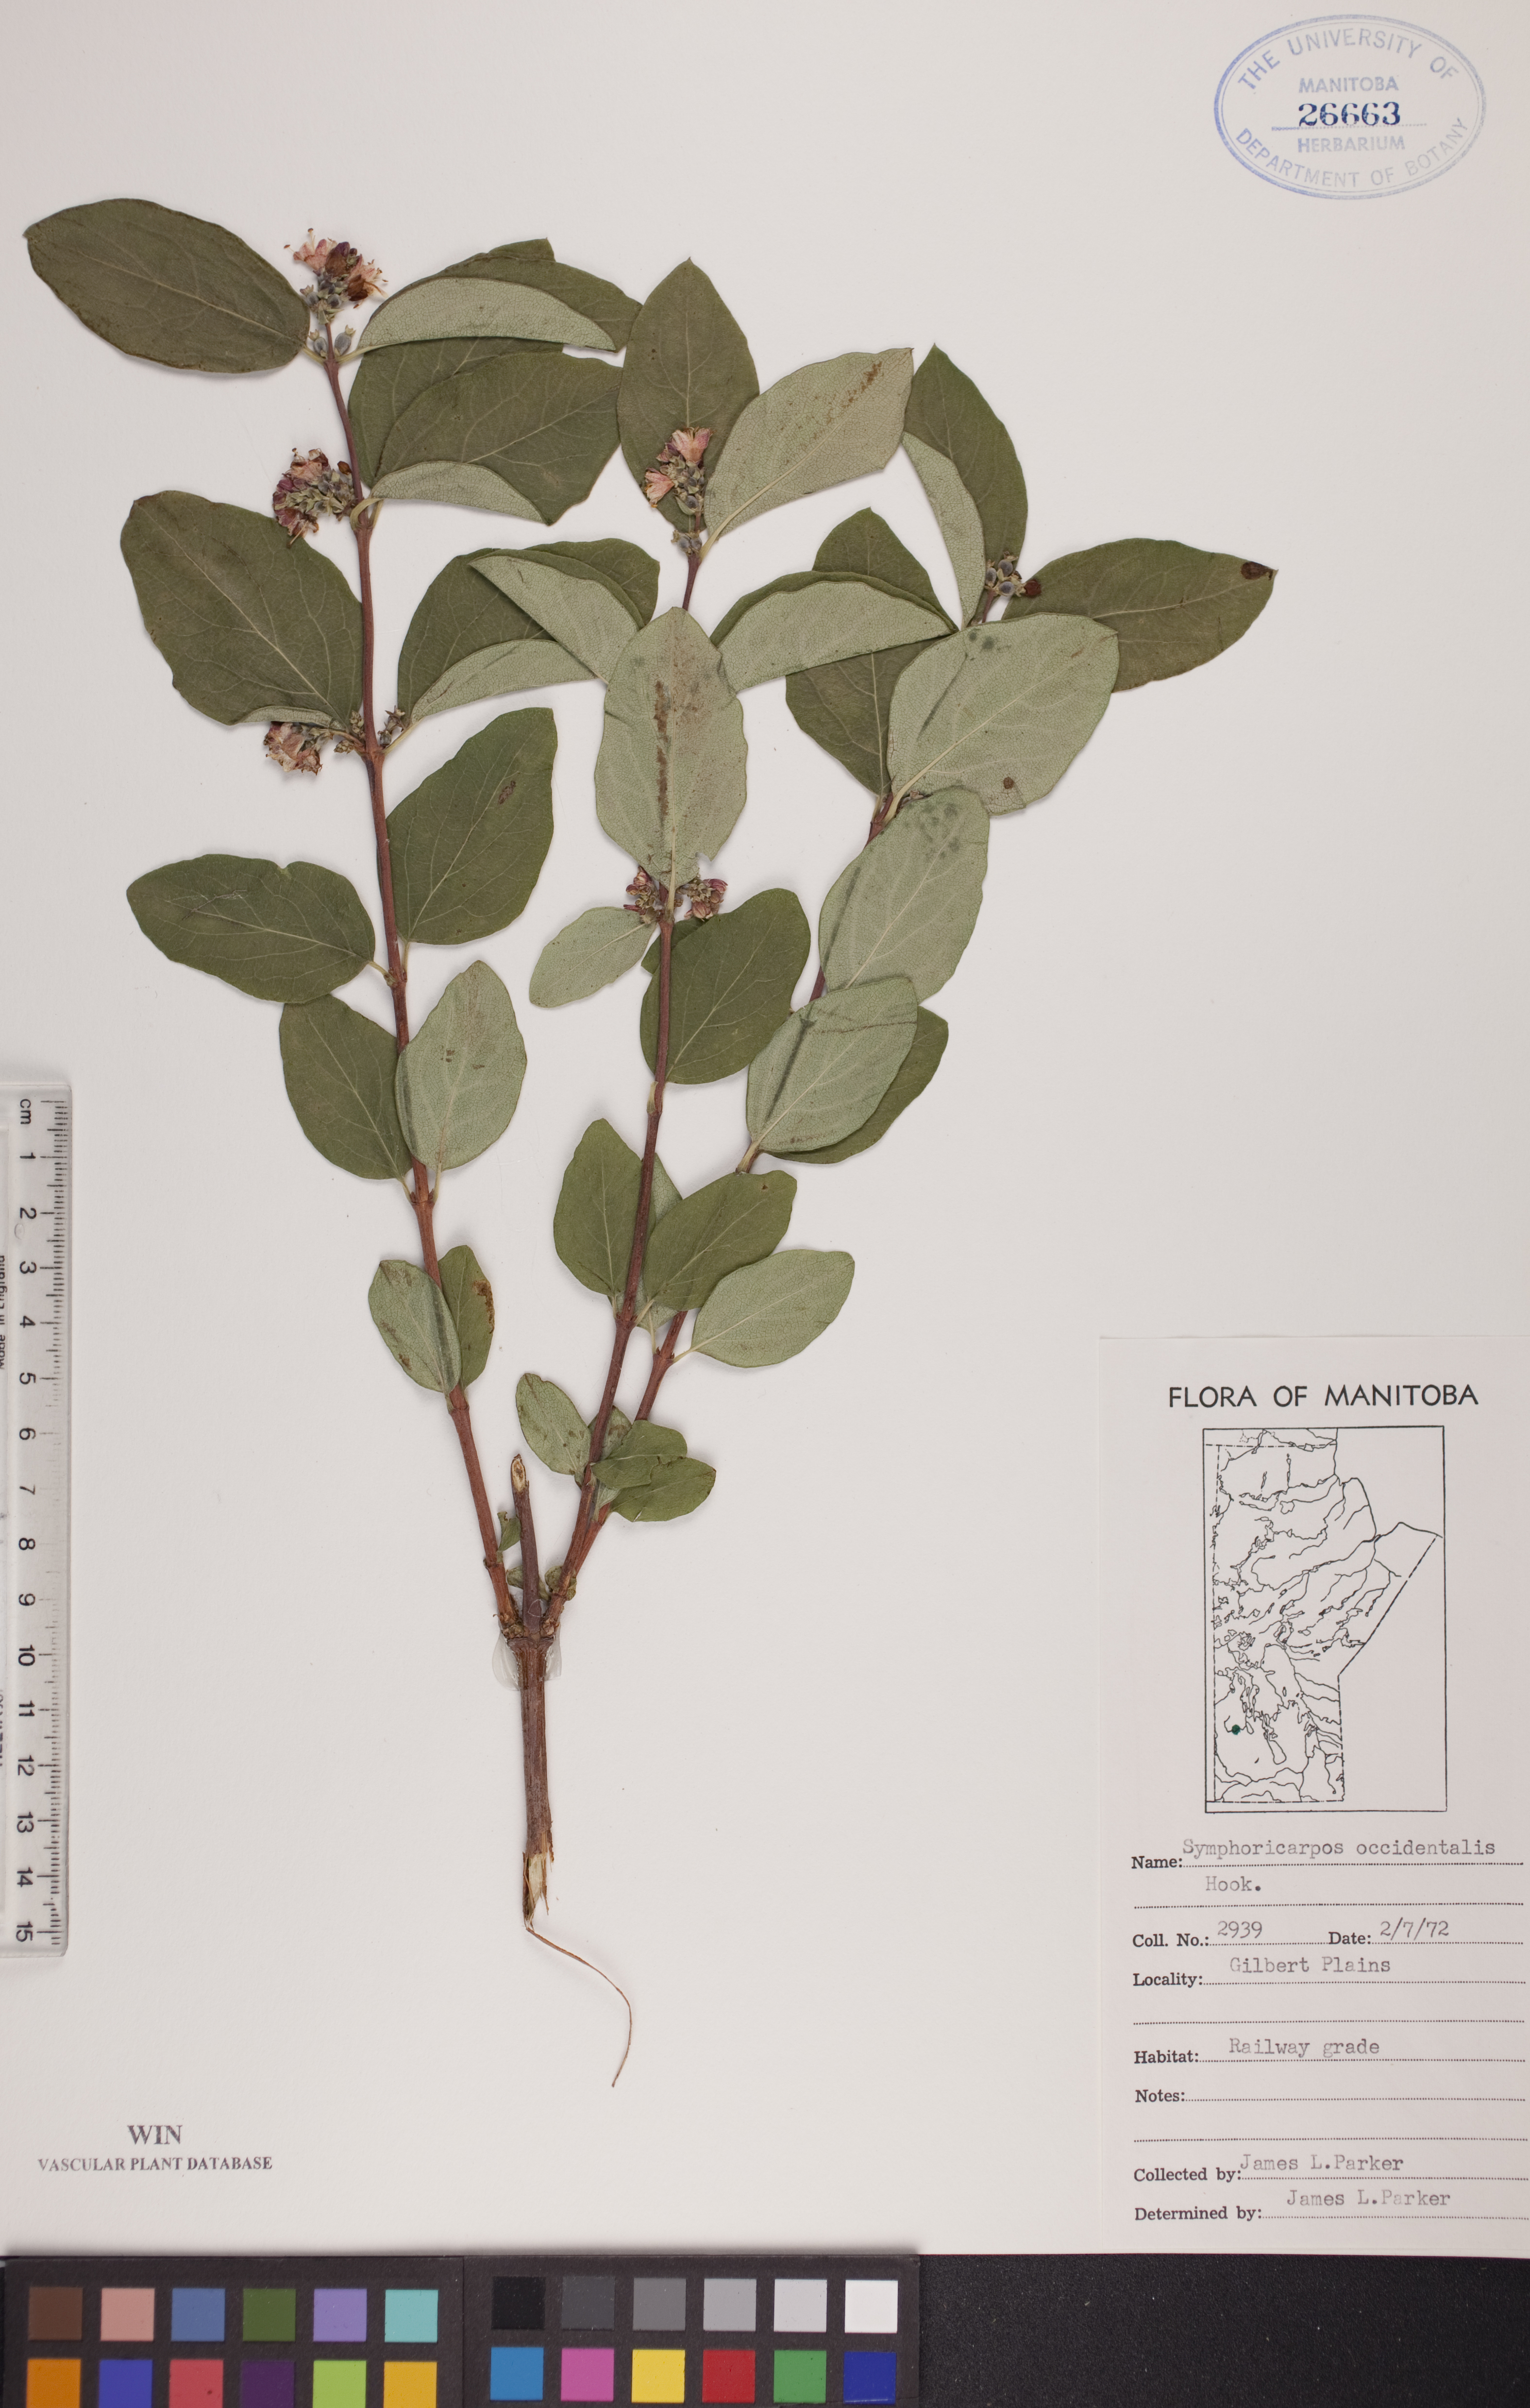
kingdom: Plantae
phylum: Tracheophyta
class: Magnoliopsida
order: Dipsacales
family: Caprifoliaceae
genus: Symphoricarpos
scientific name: Symphoricarpos occidentalis
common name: Wolfberry
